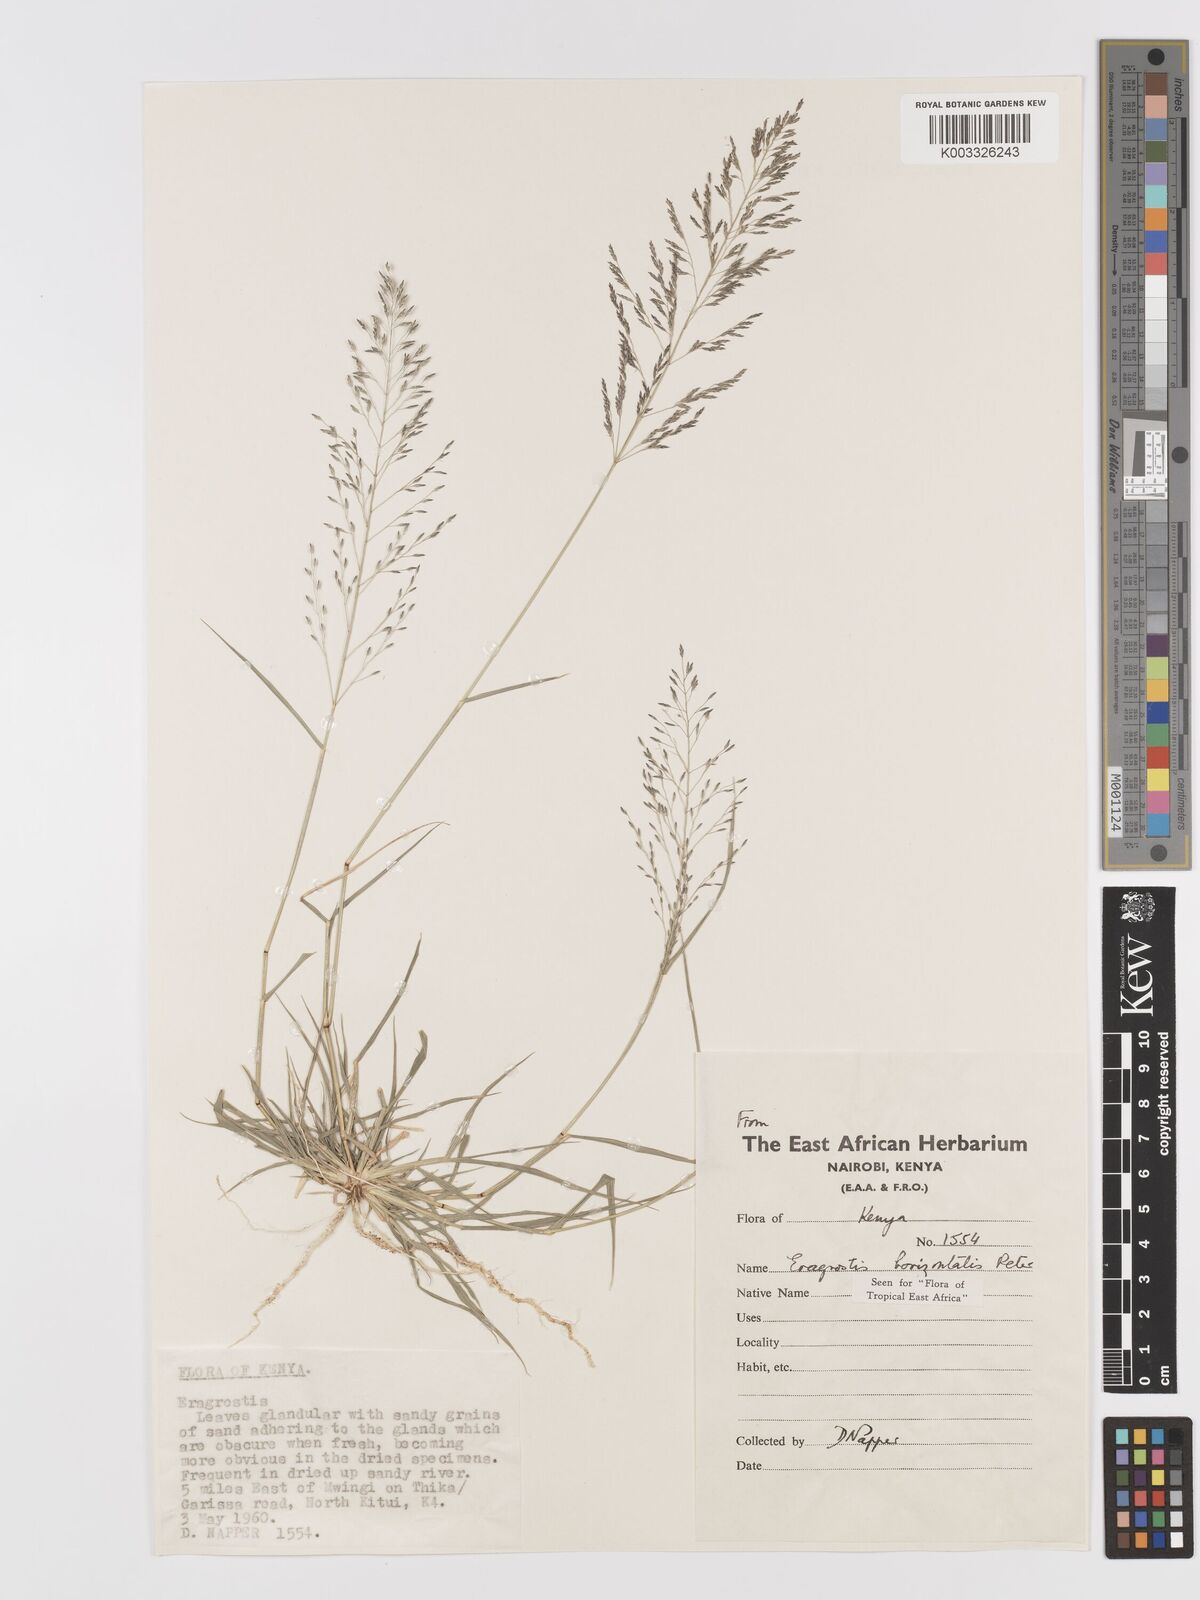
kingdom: Plantae
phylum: Tracheophyta
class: Liliopsida
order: Poales
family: Poaceae
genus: Eragrostis
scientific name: Eragrostis cylindriflora
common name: Cylinderflower lovegrass
